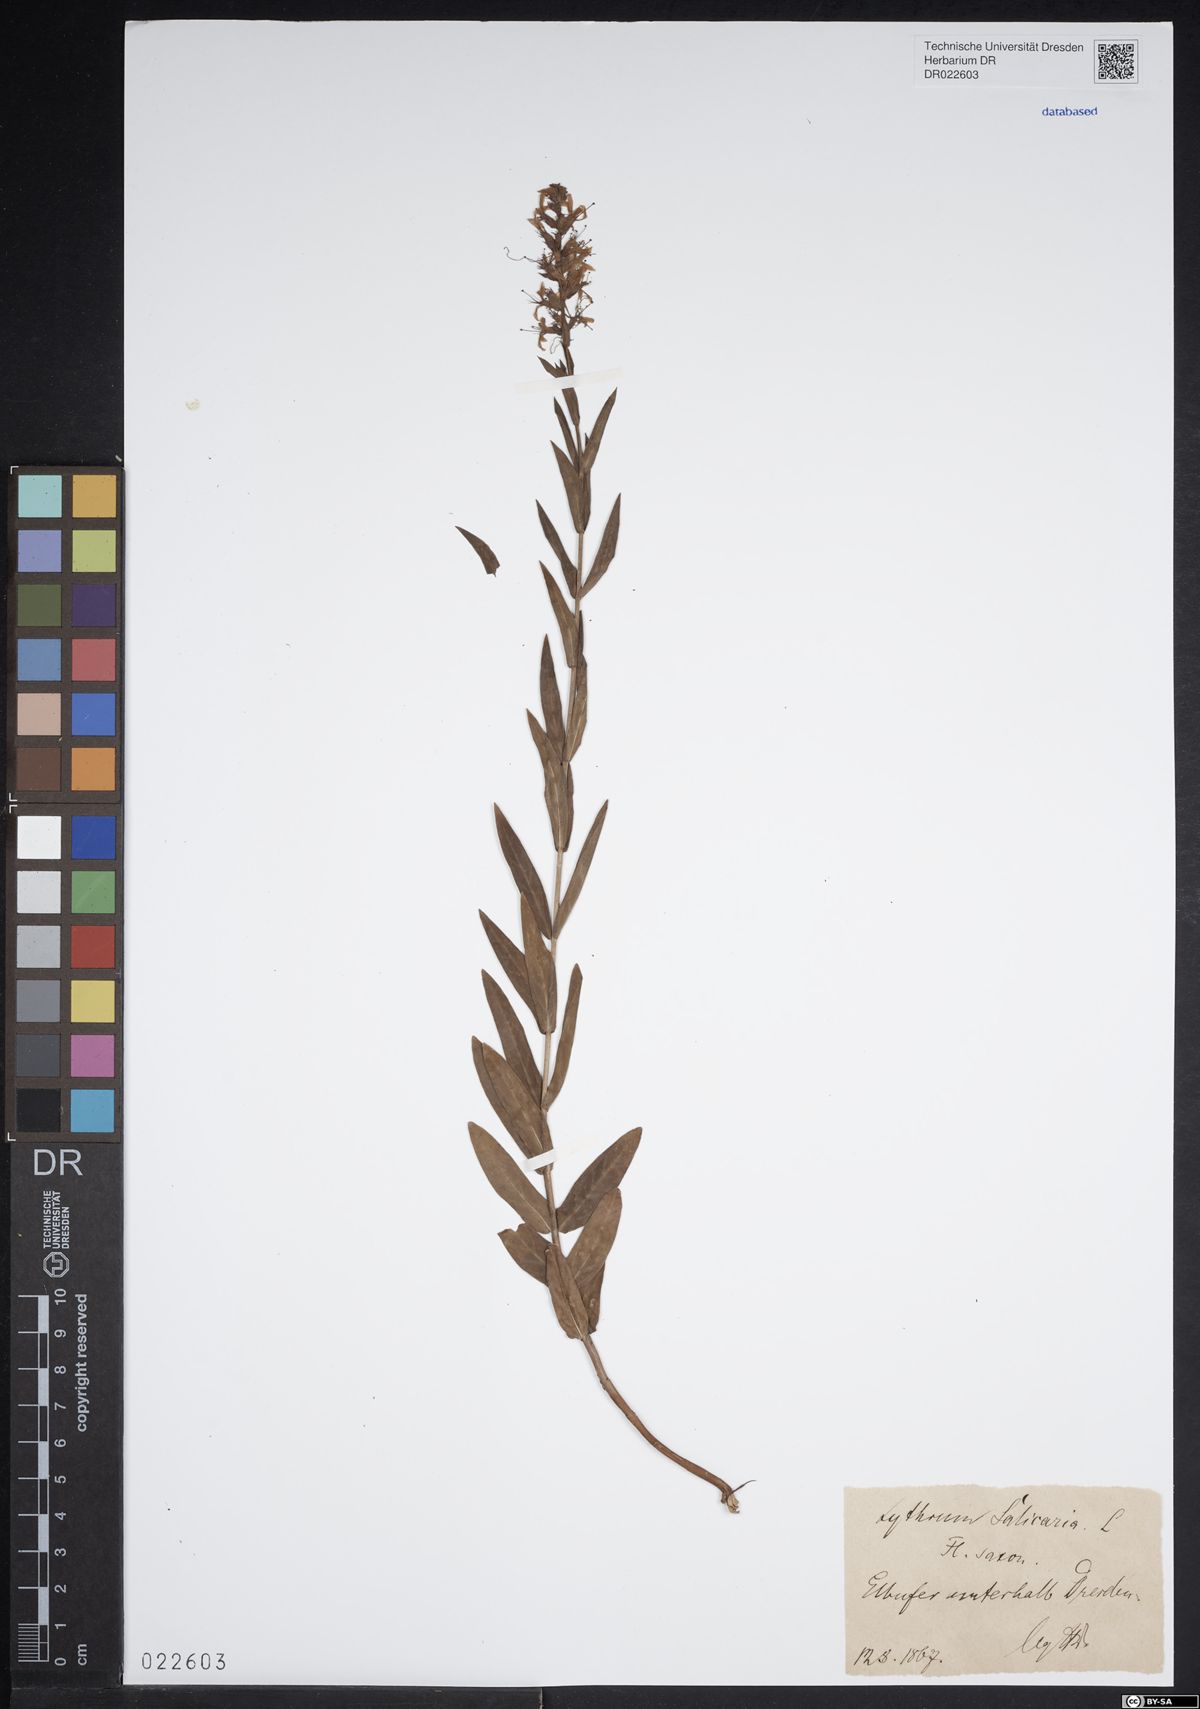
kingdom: Plantae
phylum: Tracheophyta
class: Magnoliopsida
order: Myrtales
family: Lythraceae
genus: Lythrum
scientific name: Lythrum salicaria
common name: Purple loosestrife
